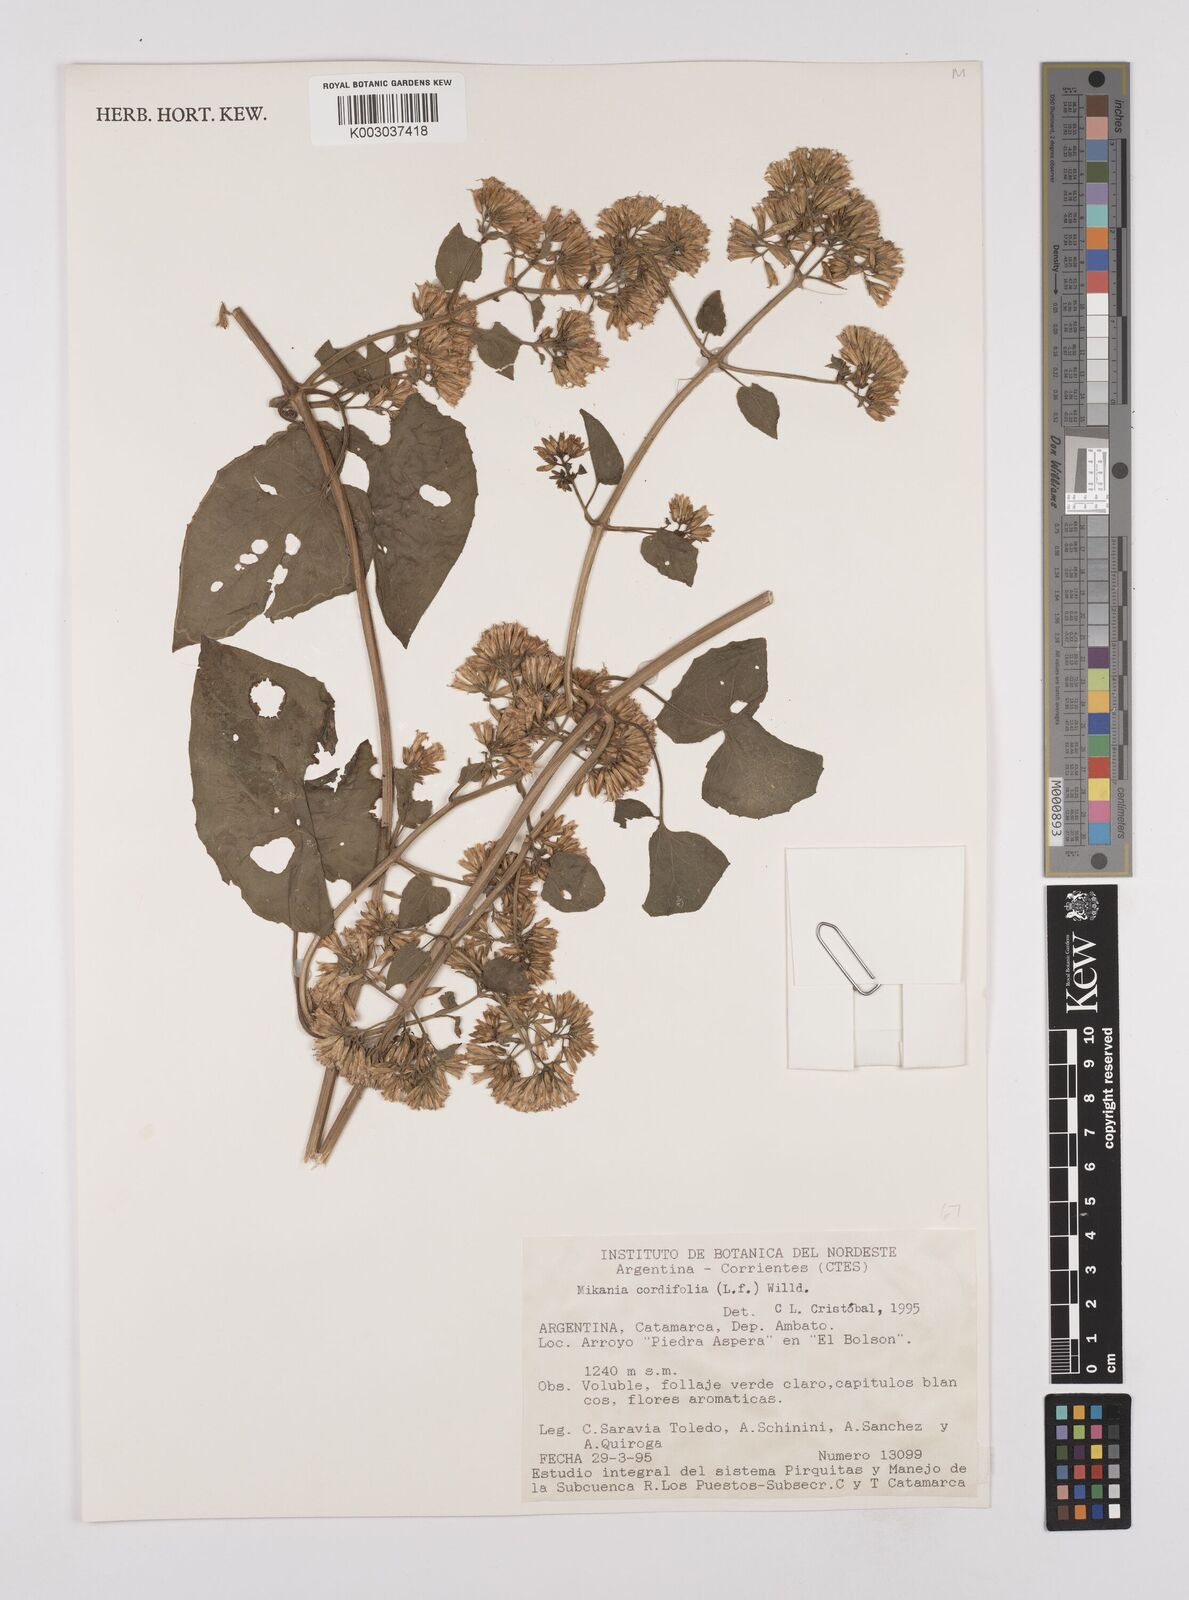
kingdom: Plantae
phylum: Tracheophyta
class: Magnoliopsida
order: Asterales
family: Asteraceae
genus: Mikania
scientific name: Mikania cordifolia
